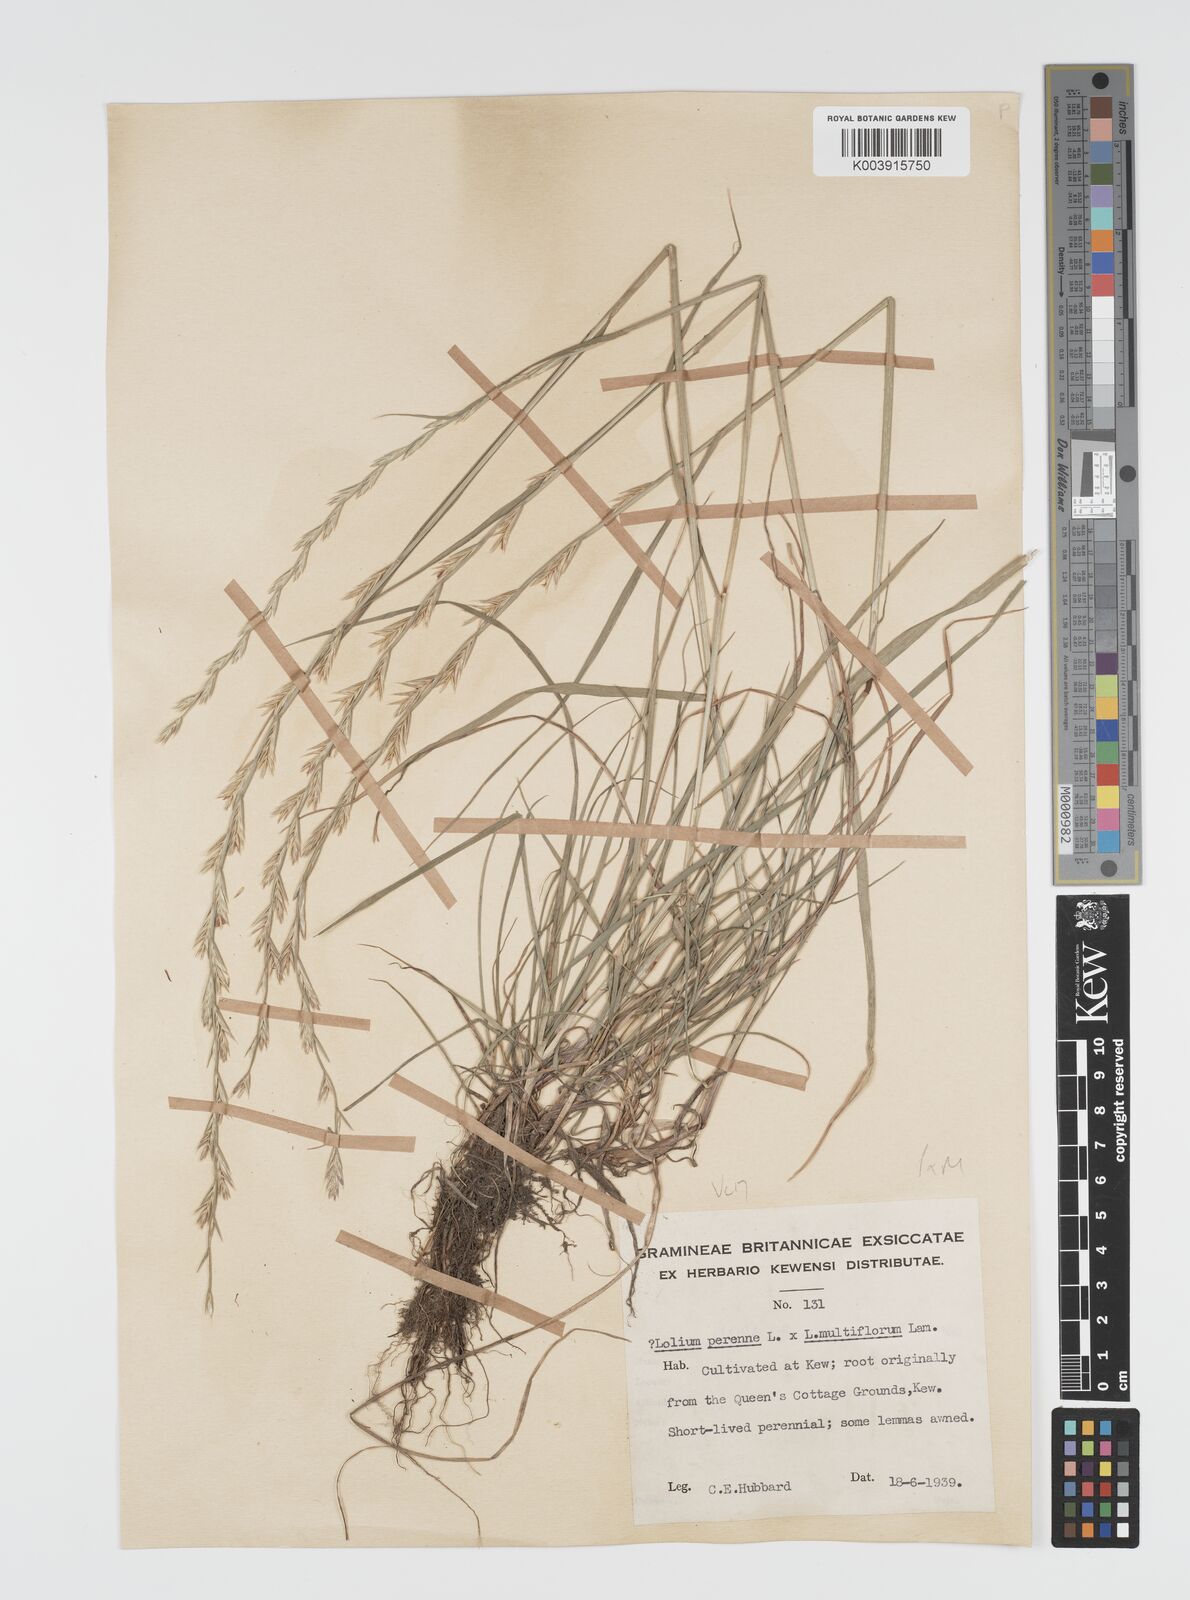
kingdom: Plantae
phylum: Tracheophyta
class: Liliopsida
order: Poales
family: Poaceae
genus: Lolium
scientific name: Lolium boucheanum
